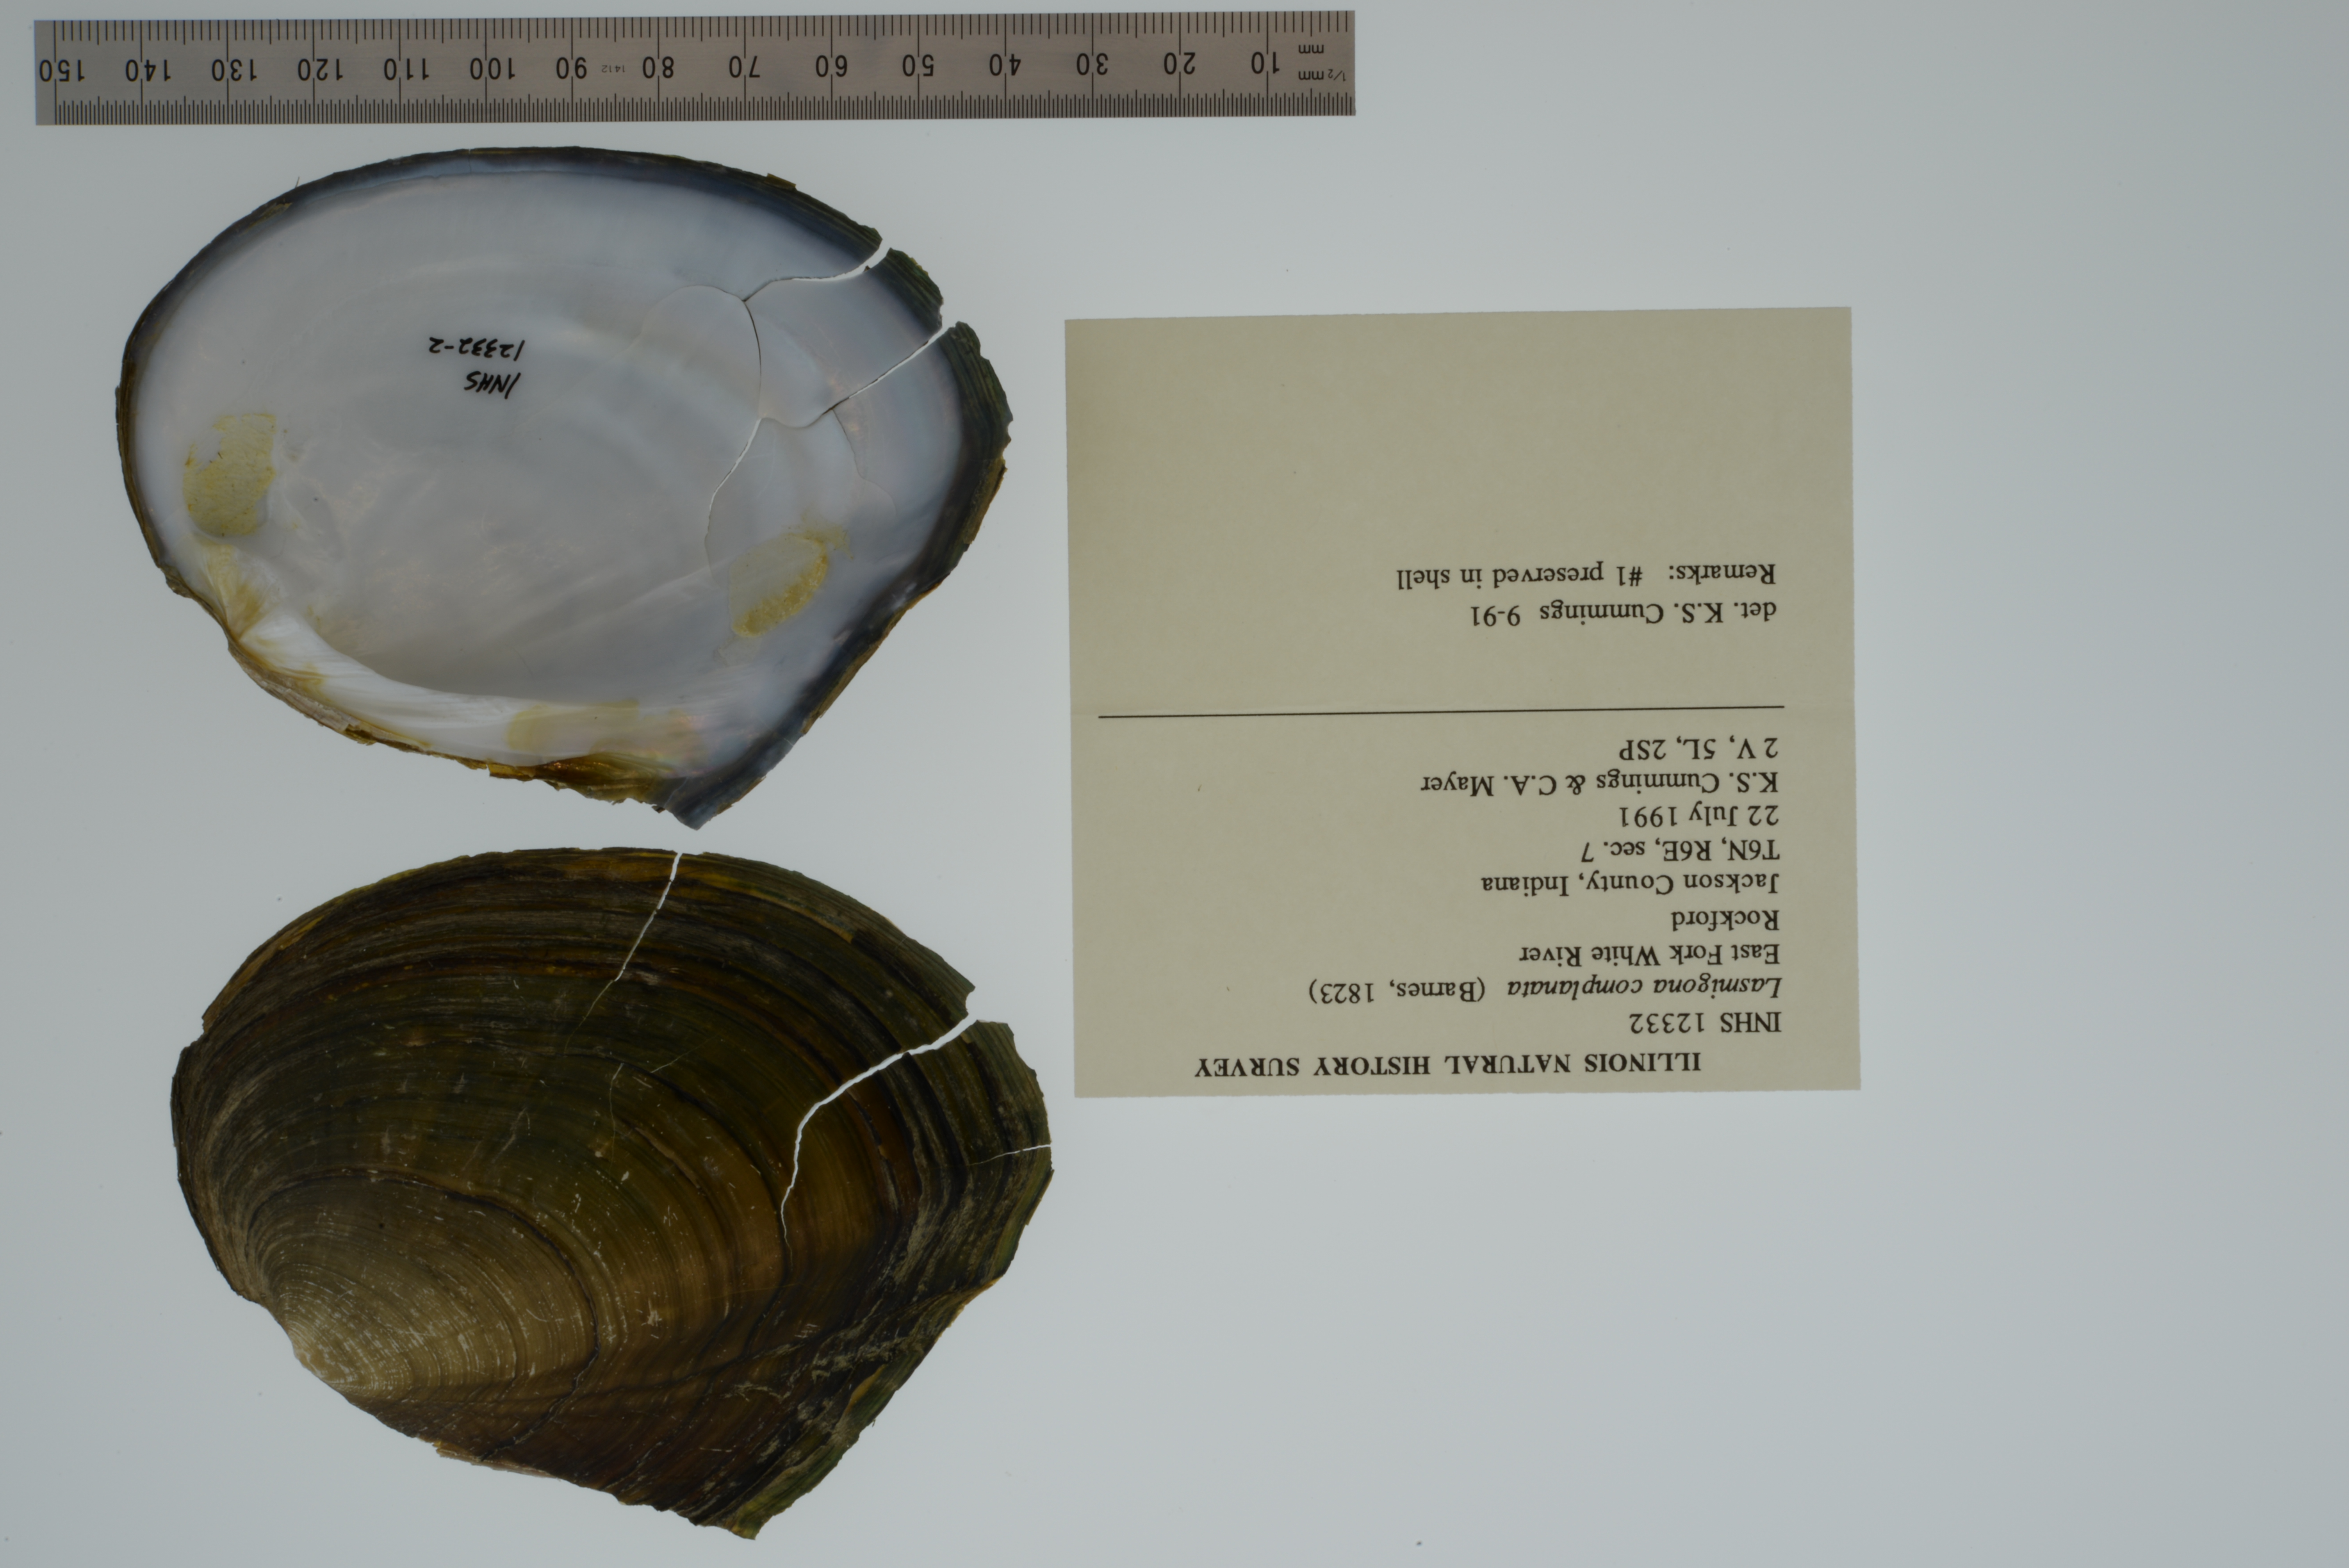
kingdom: Animalia
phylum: Mollusca
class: Bivalvia
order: Unionida
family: Unionidae
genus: Lasmigona
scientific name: Lasmigona complanata
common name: White heelsplitter
